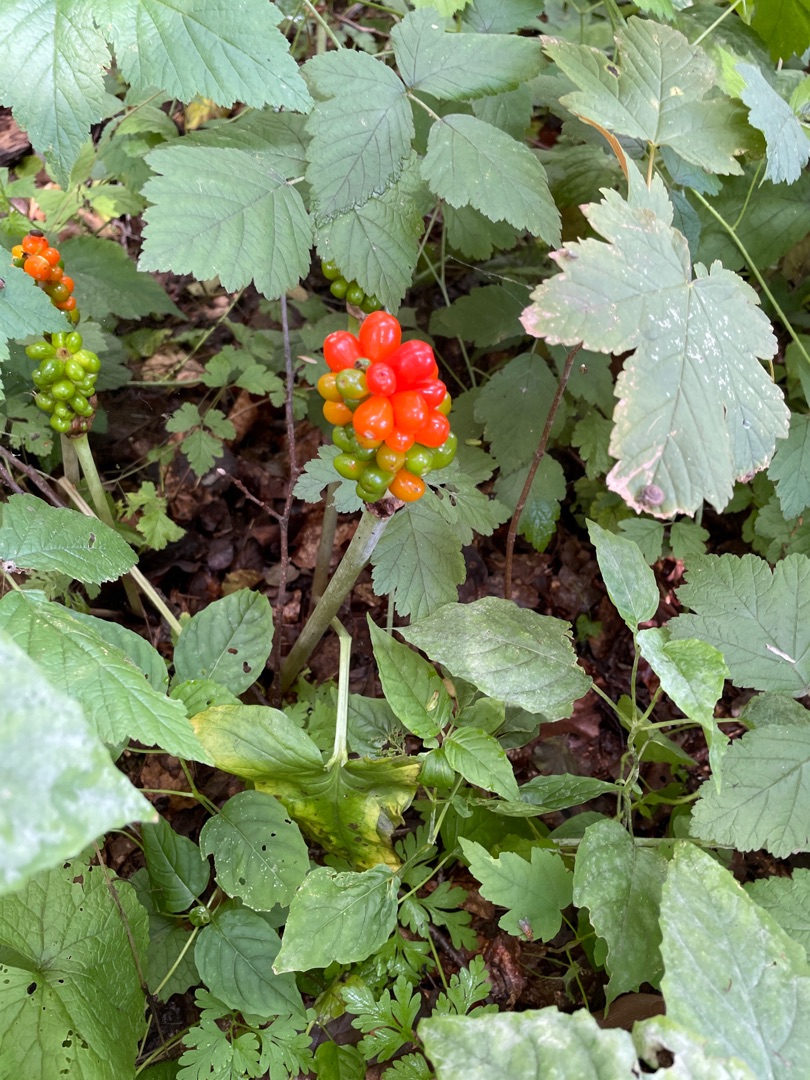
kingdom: Plantae
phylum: Tracheophyta
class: Liliopsida
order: Alismatales
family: Araceae
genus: Arum
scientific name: Arum
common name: Arumslægten
